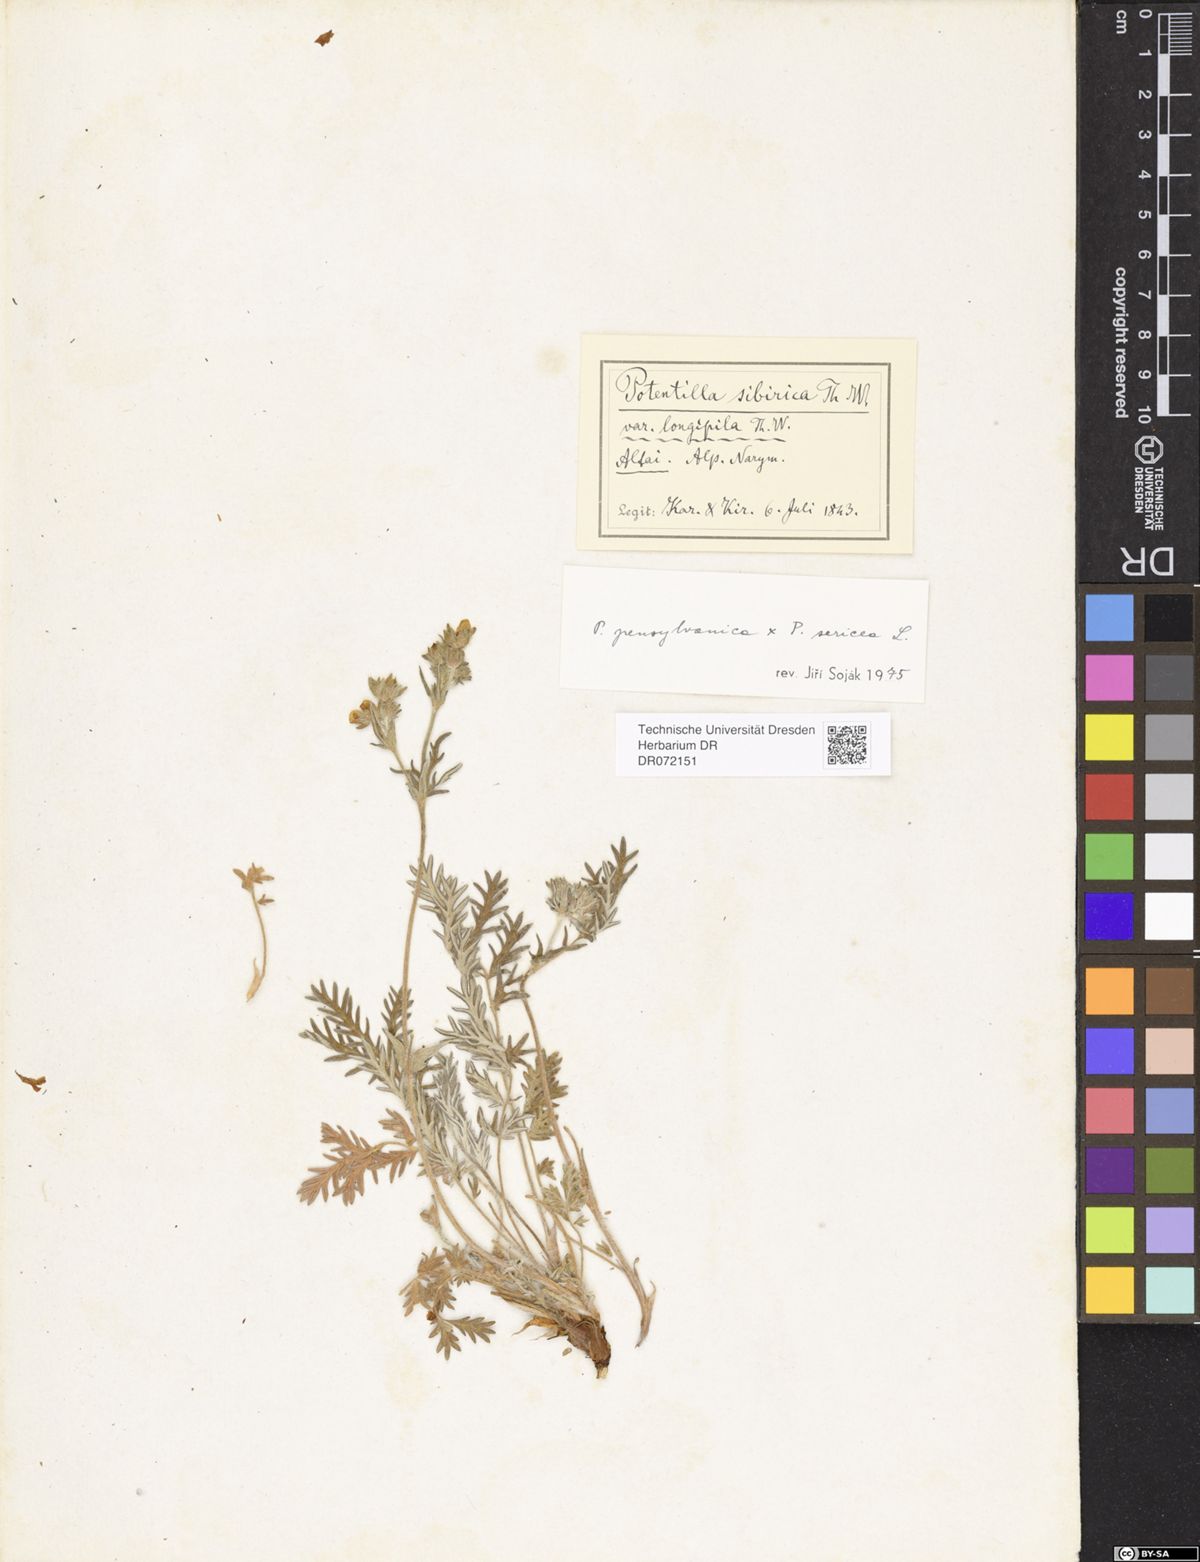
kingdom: Plantae
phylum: Tracheophyta
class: Magnoliopsida
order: Rosales
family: Rosaceae
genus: Potentilla
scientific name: Potentilla
